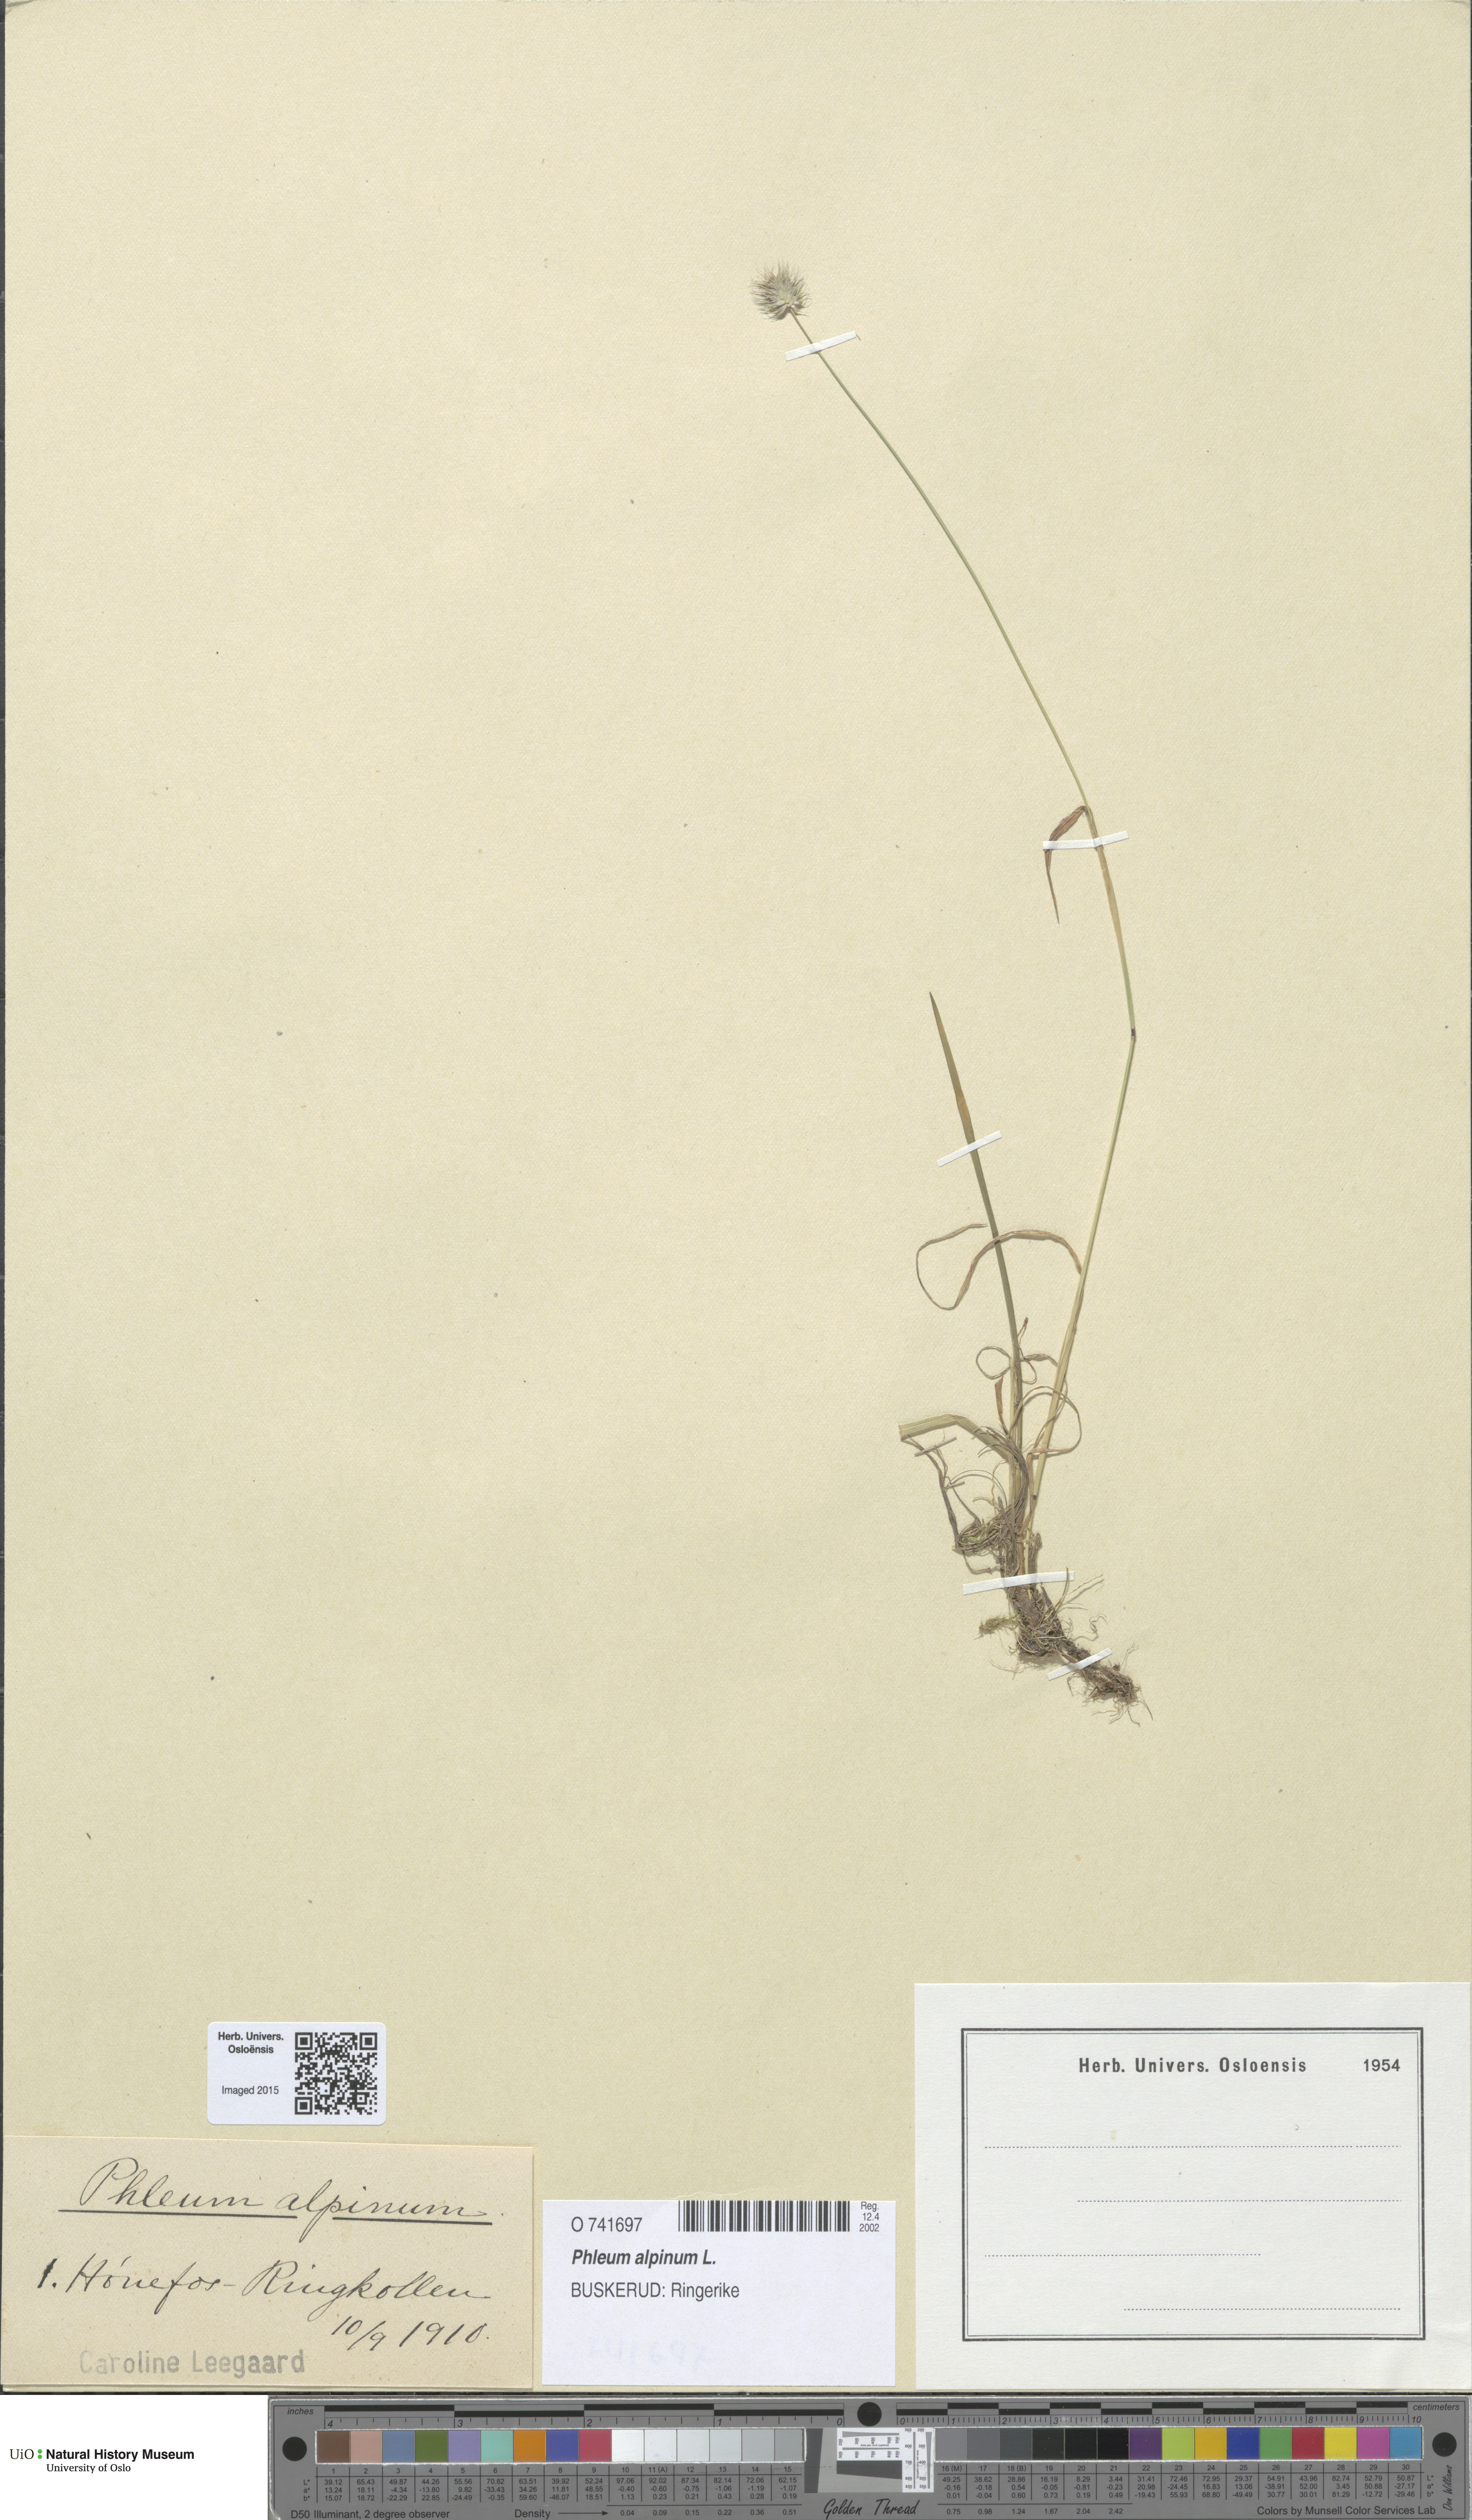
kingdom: Plantae
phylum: Tracheophyta
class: Liliopsida
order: Poales
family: Poaceae
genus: Phleum
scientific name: Phleum alpinum
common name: Alpine cat's-tail
